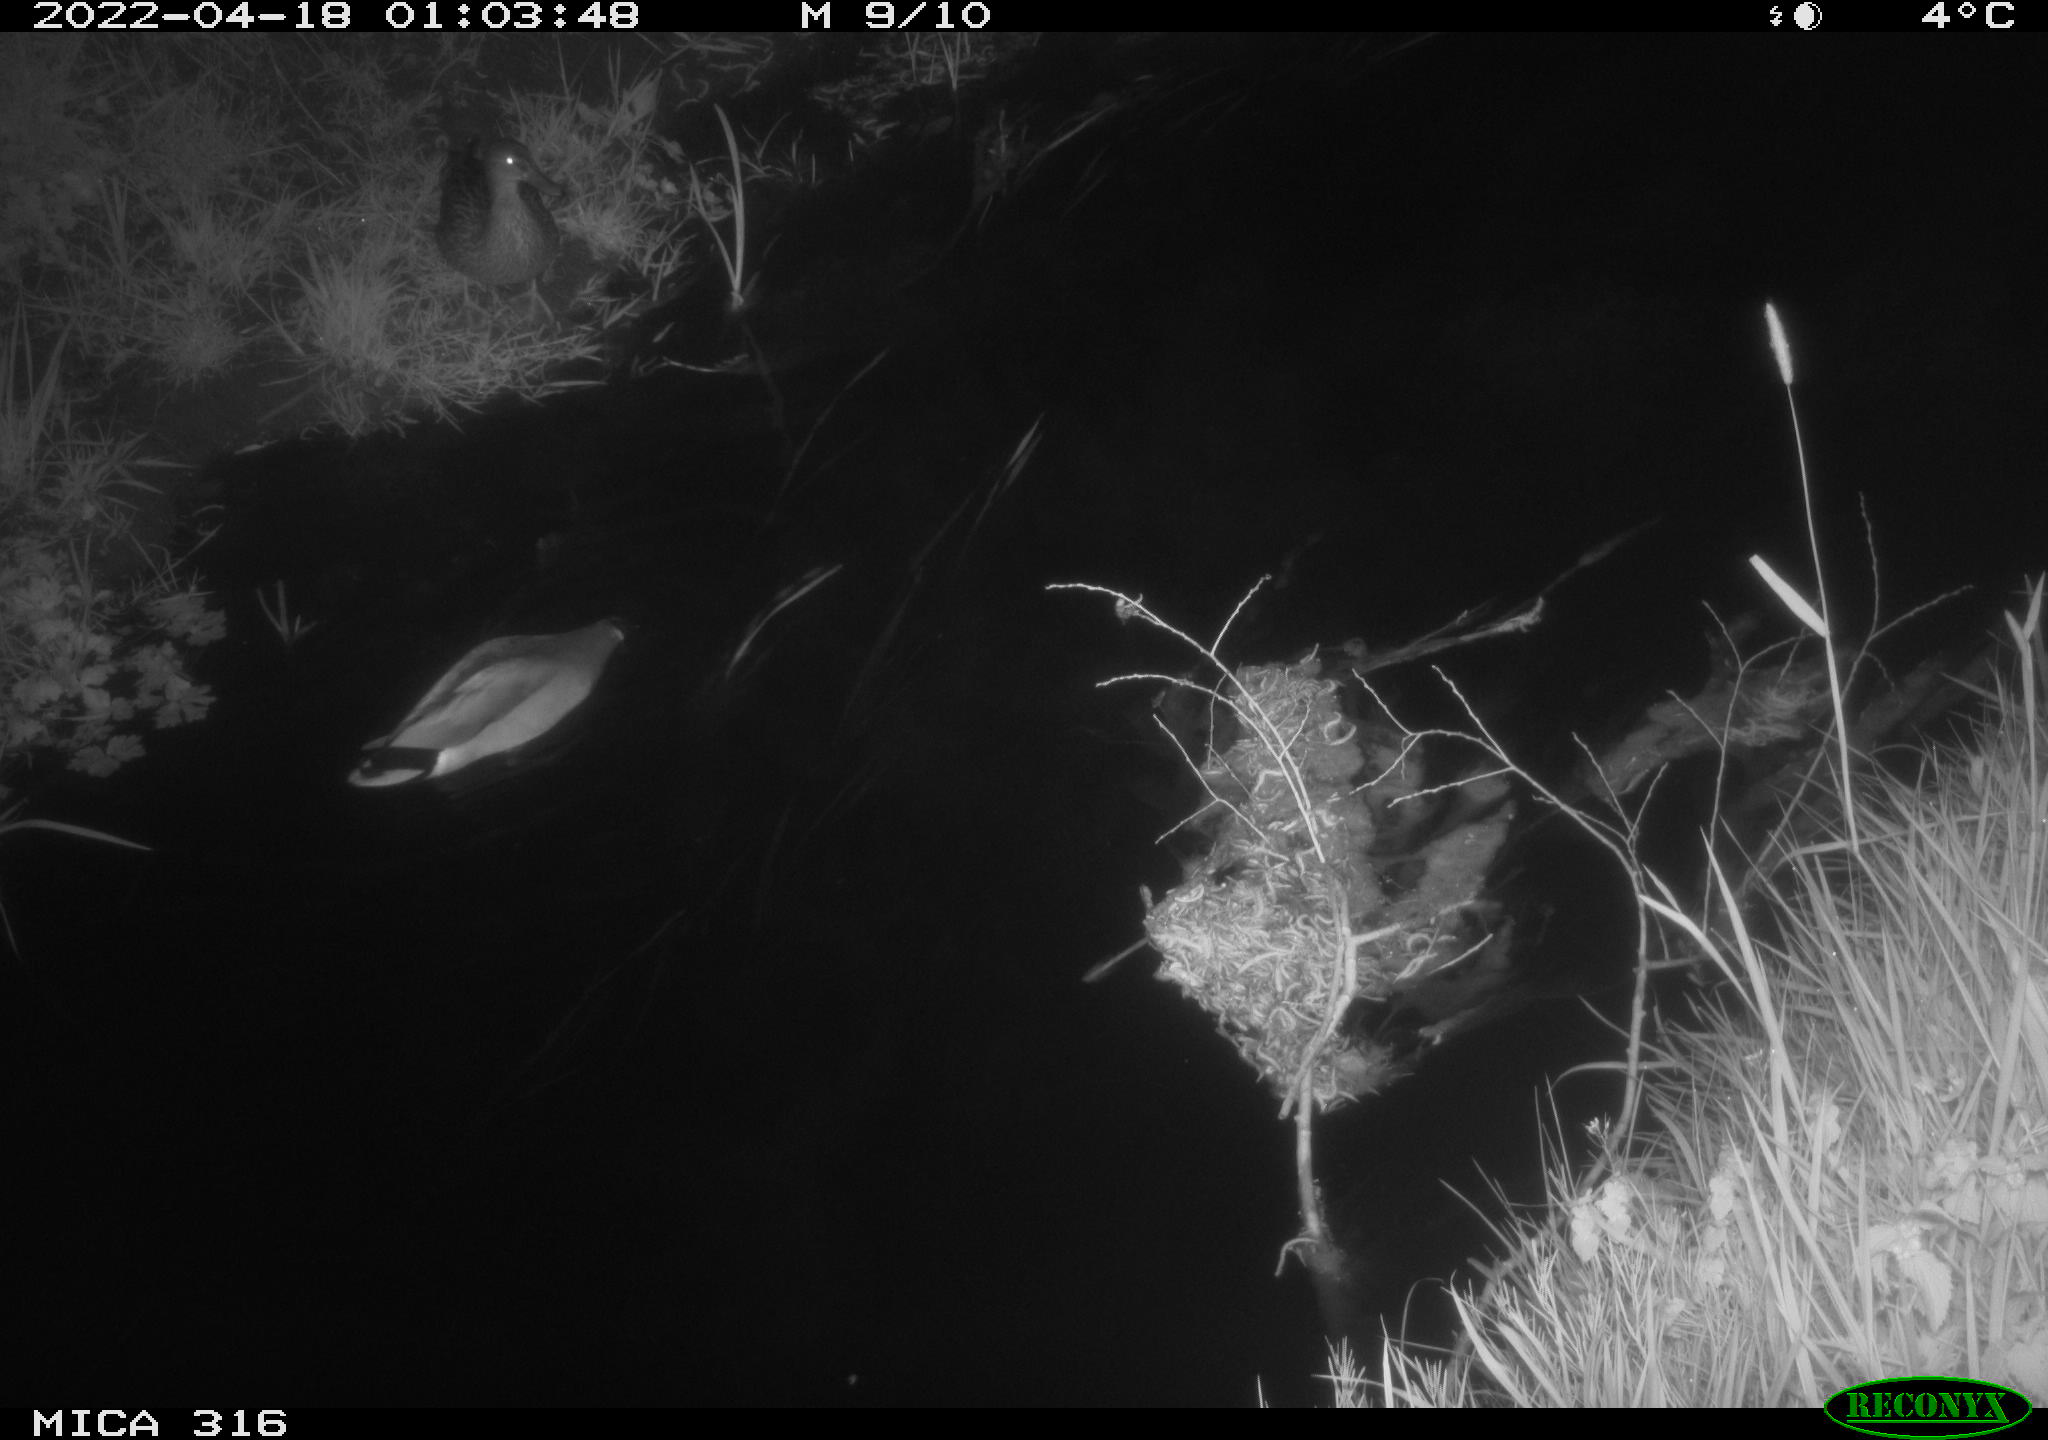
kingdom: Animalia
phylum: Chordata
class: Aves
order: Anseriformes
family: Anatidae
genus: Anas
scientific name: Anas platyrhynchos
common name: Mallard
